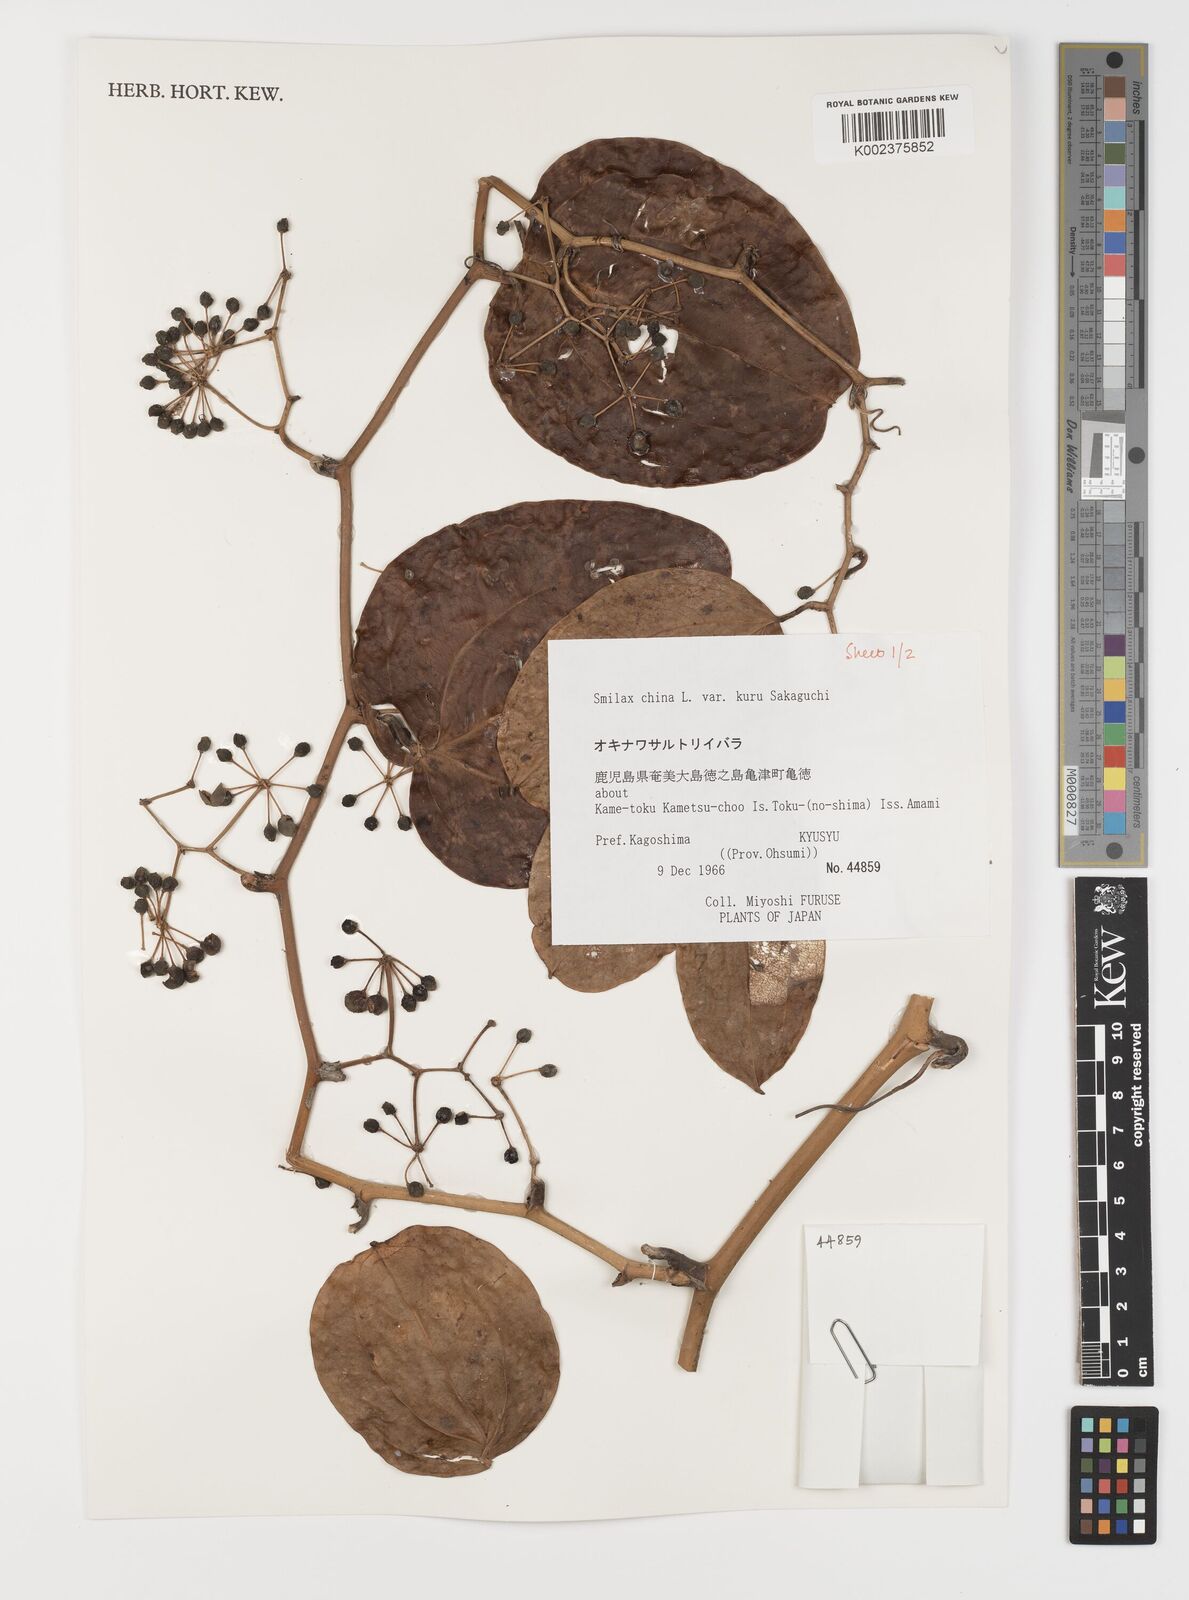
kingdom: Plantae
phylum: Tracheophyta
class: Liliopsida
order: Liliales
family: Smilacaceae
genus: Smilax
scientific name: Smilax china
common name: Chinaroot
